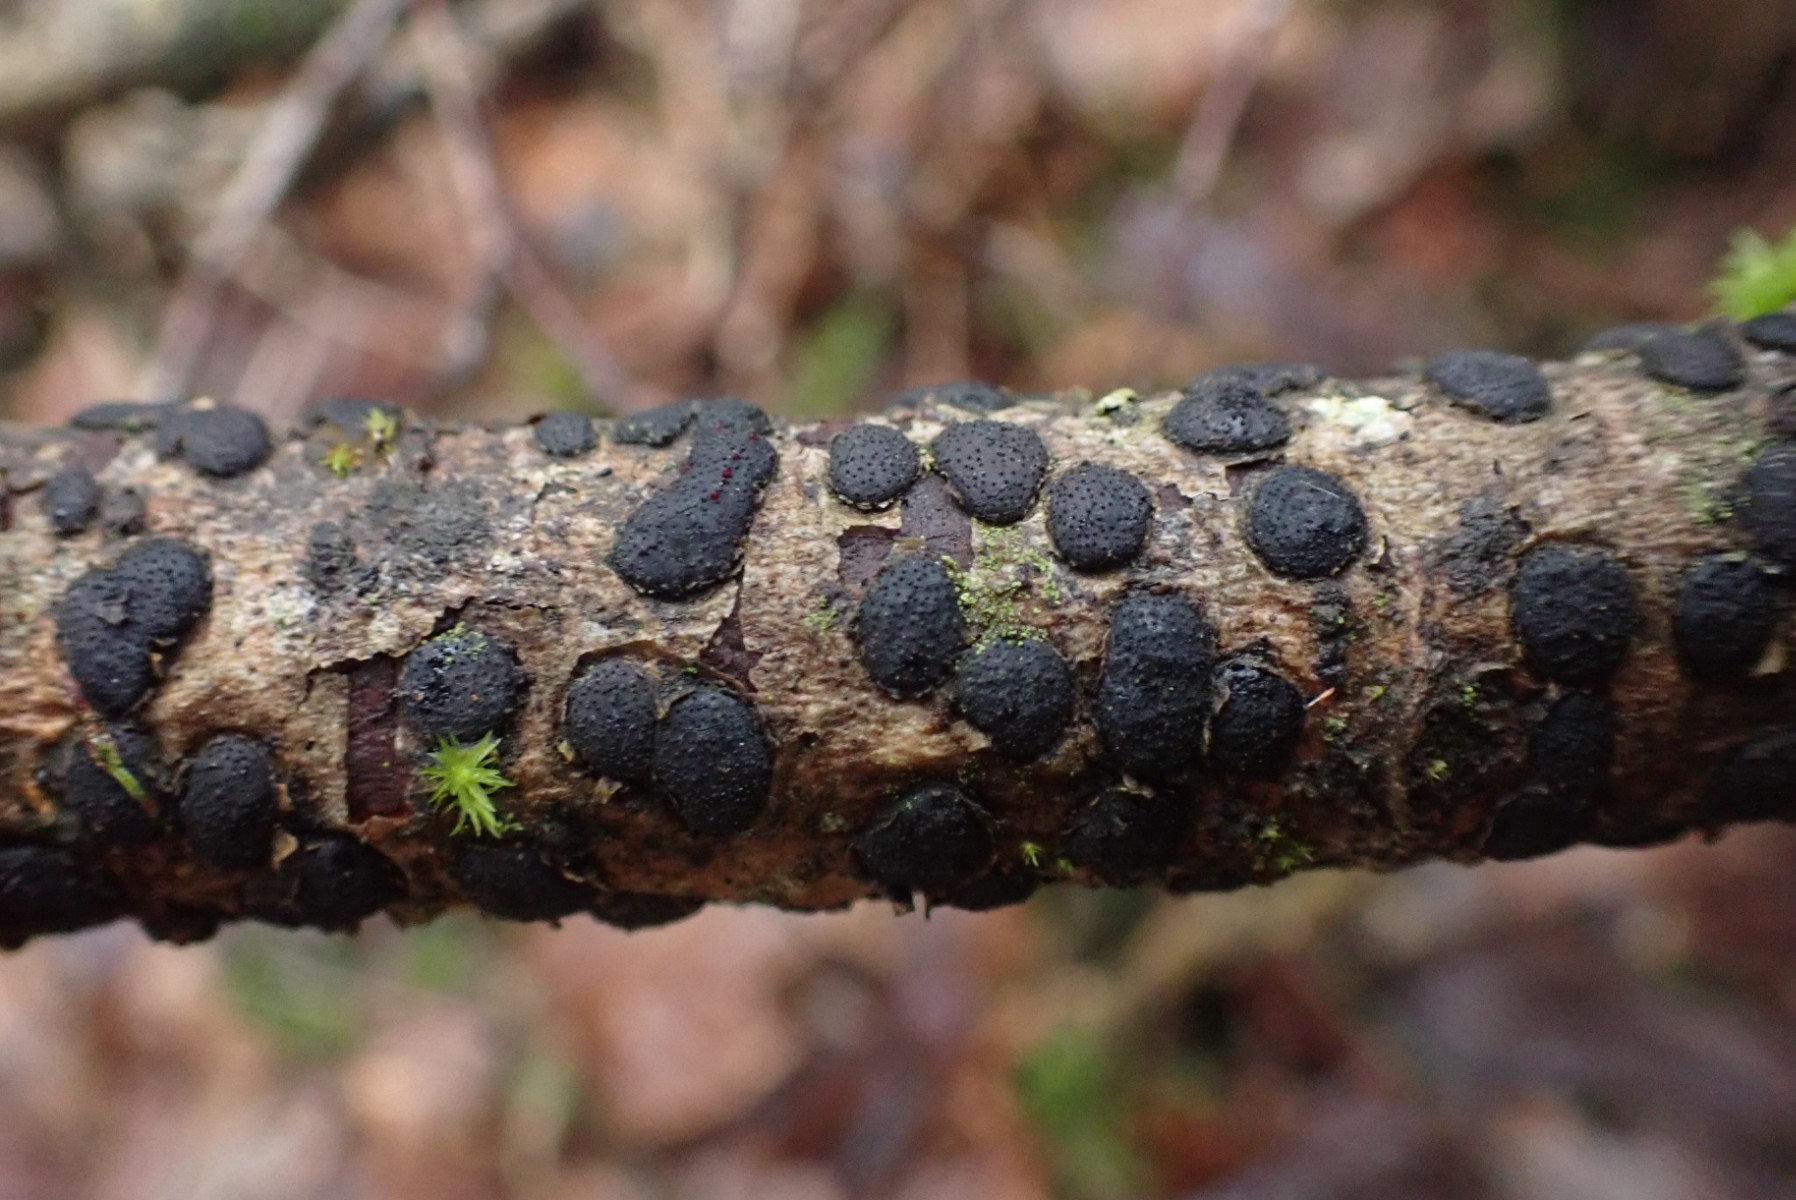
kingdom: Fungi
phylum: Ascomycota
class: Sordariomycetes
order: Xylariales
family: Diatrypaceae
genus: Diatrype
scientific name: Diatrype bullata
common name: pile-kulskorpe
